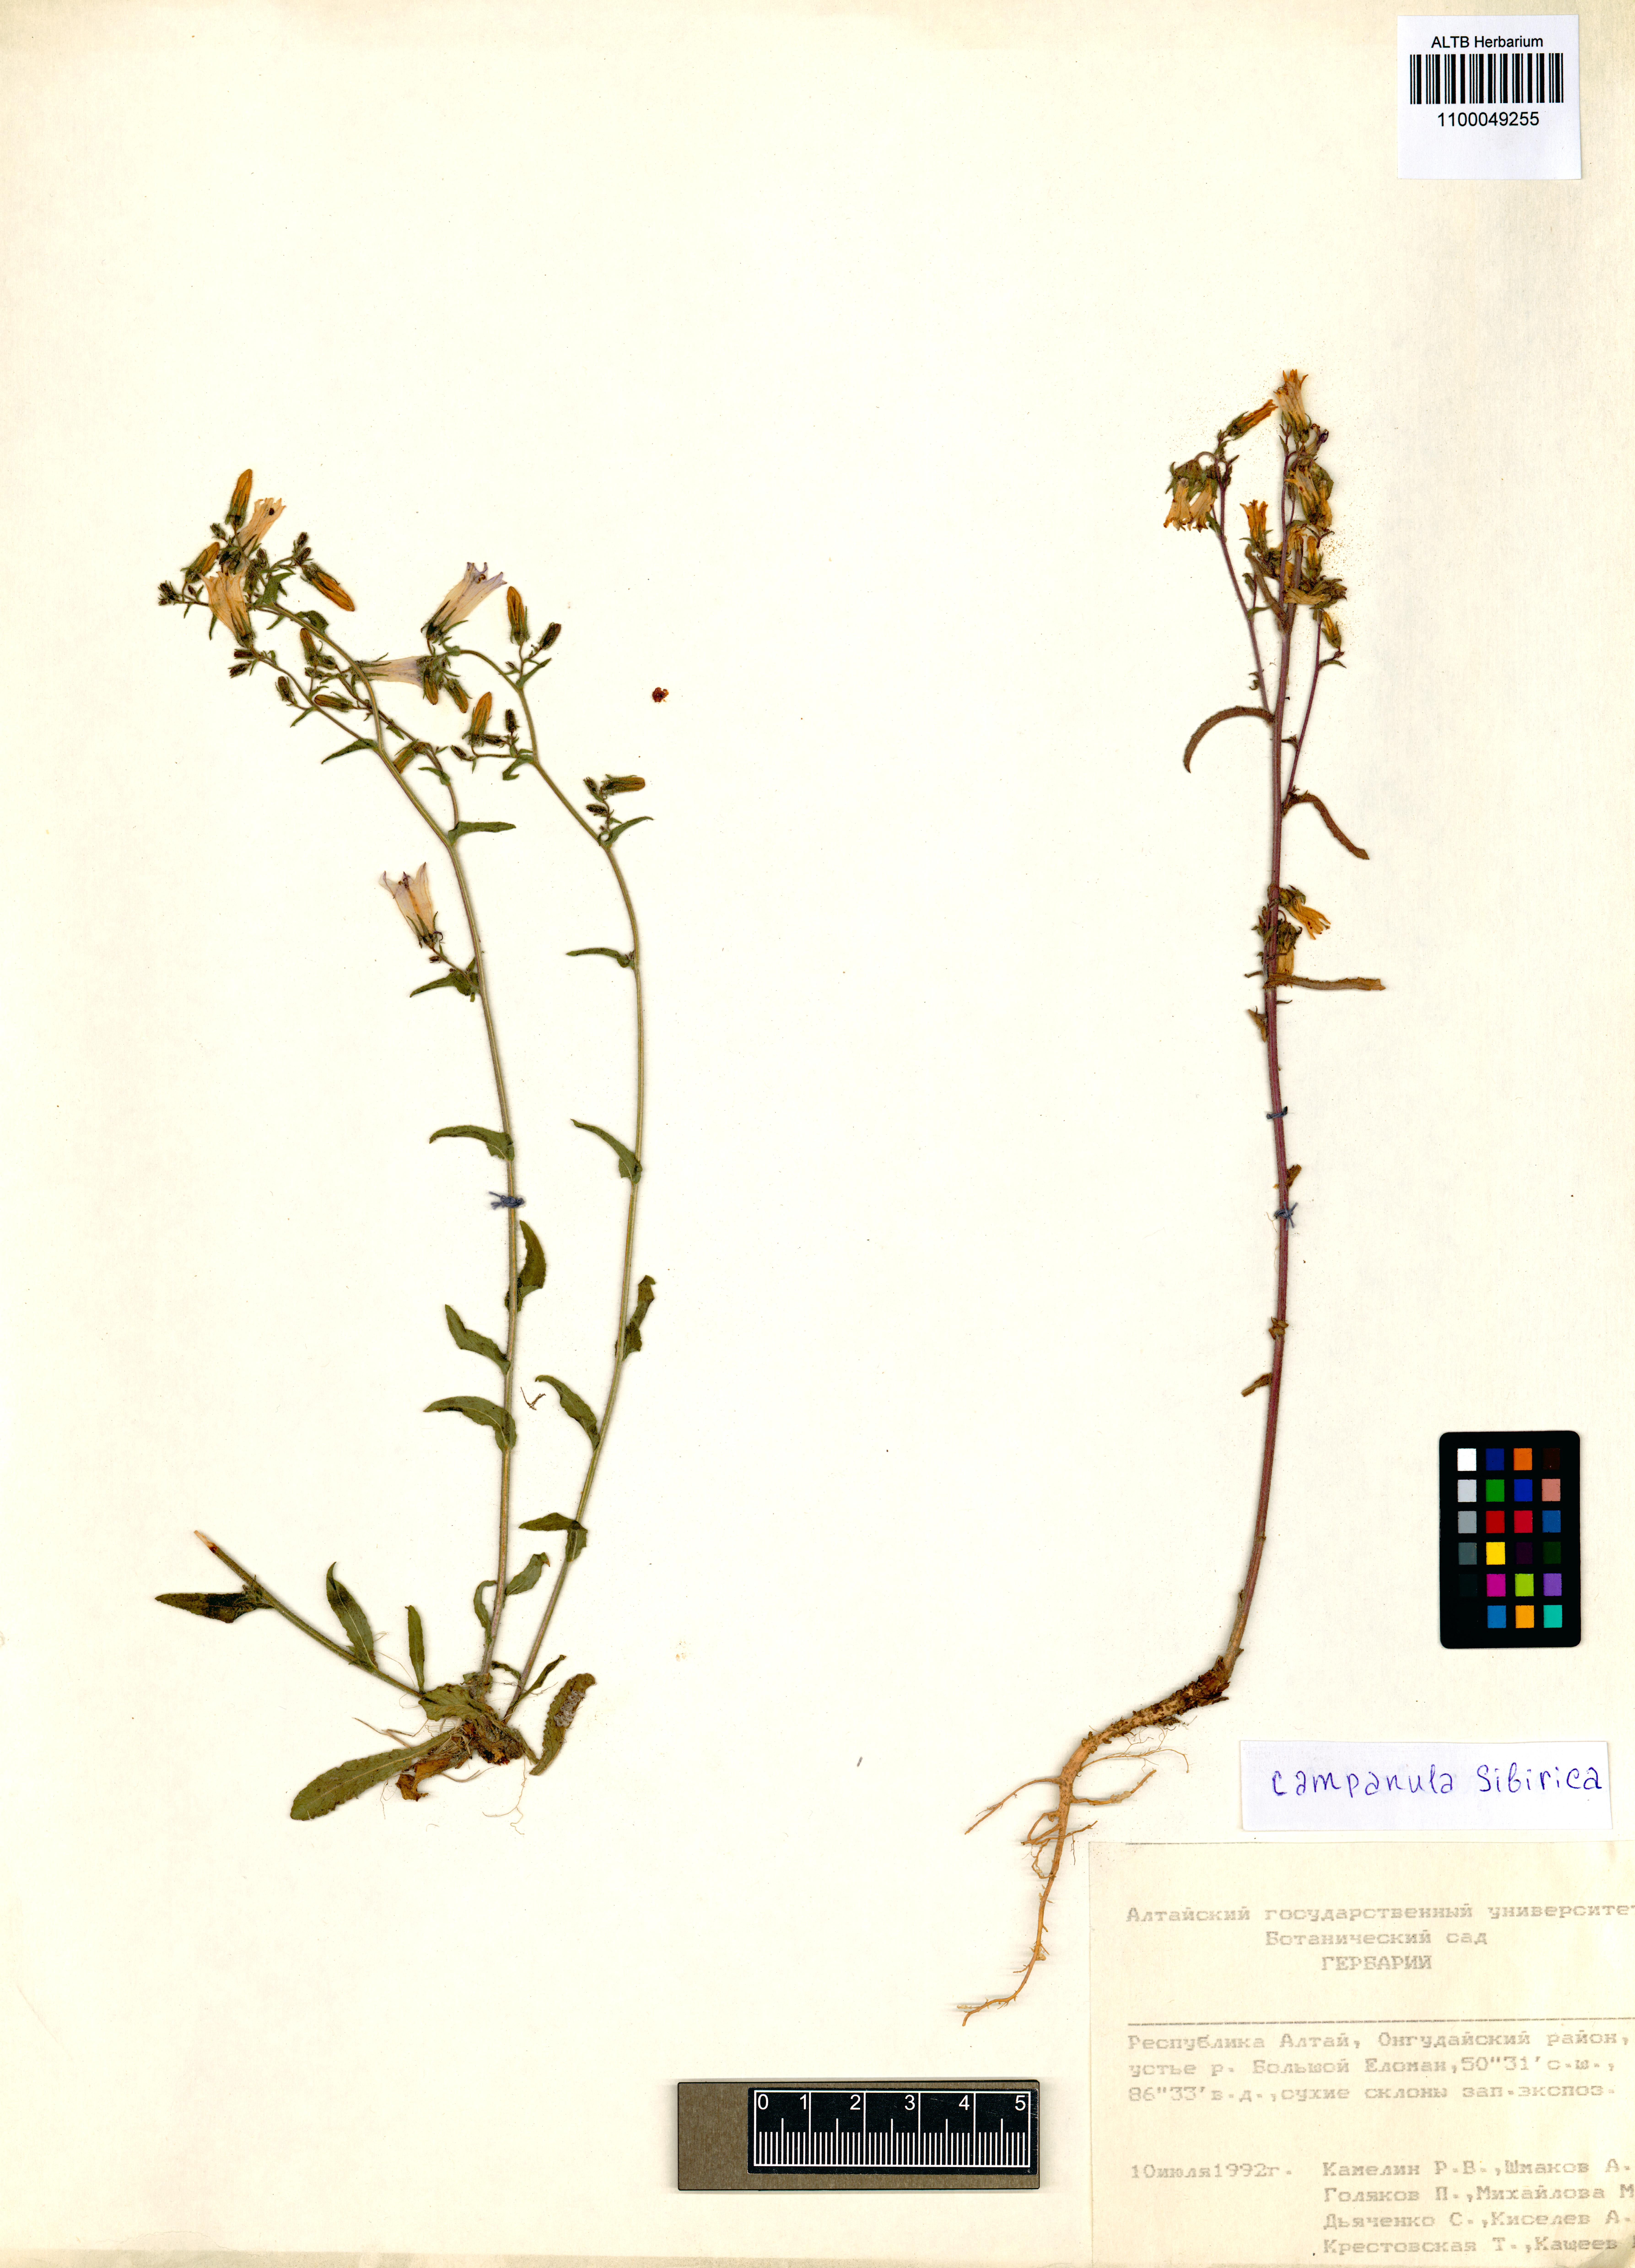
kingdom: Plantae
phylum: Tracheophyta
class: Magnoliopsida
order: Asterales
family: Campanulaceae
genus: Campanula
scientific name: Campanula sibirica
